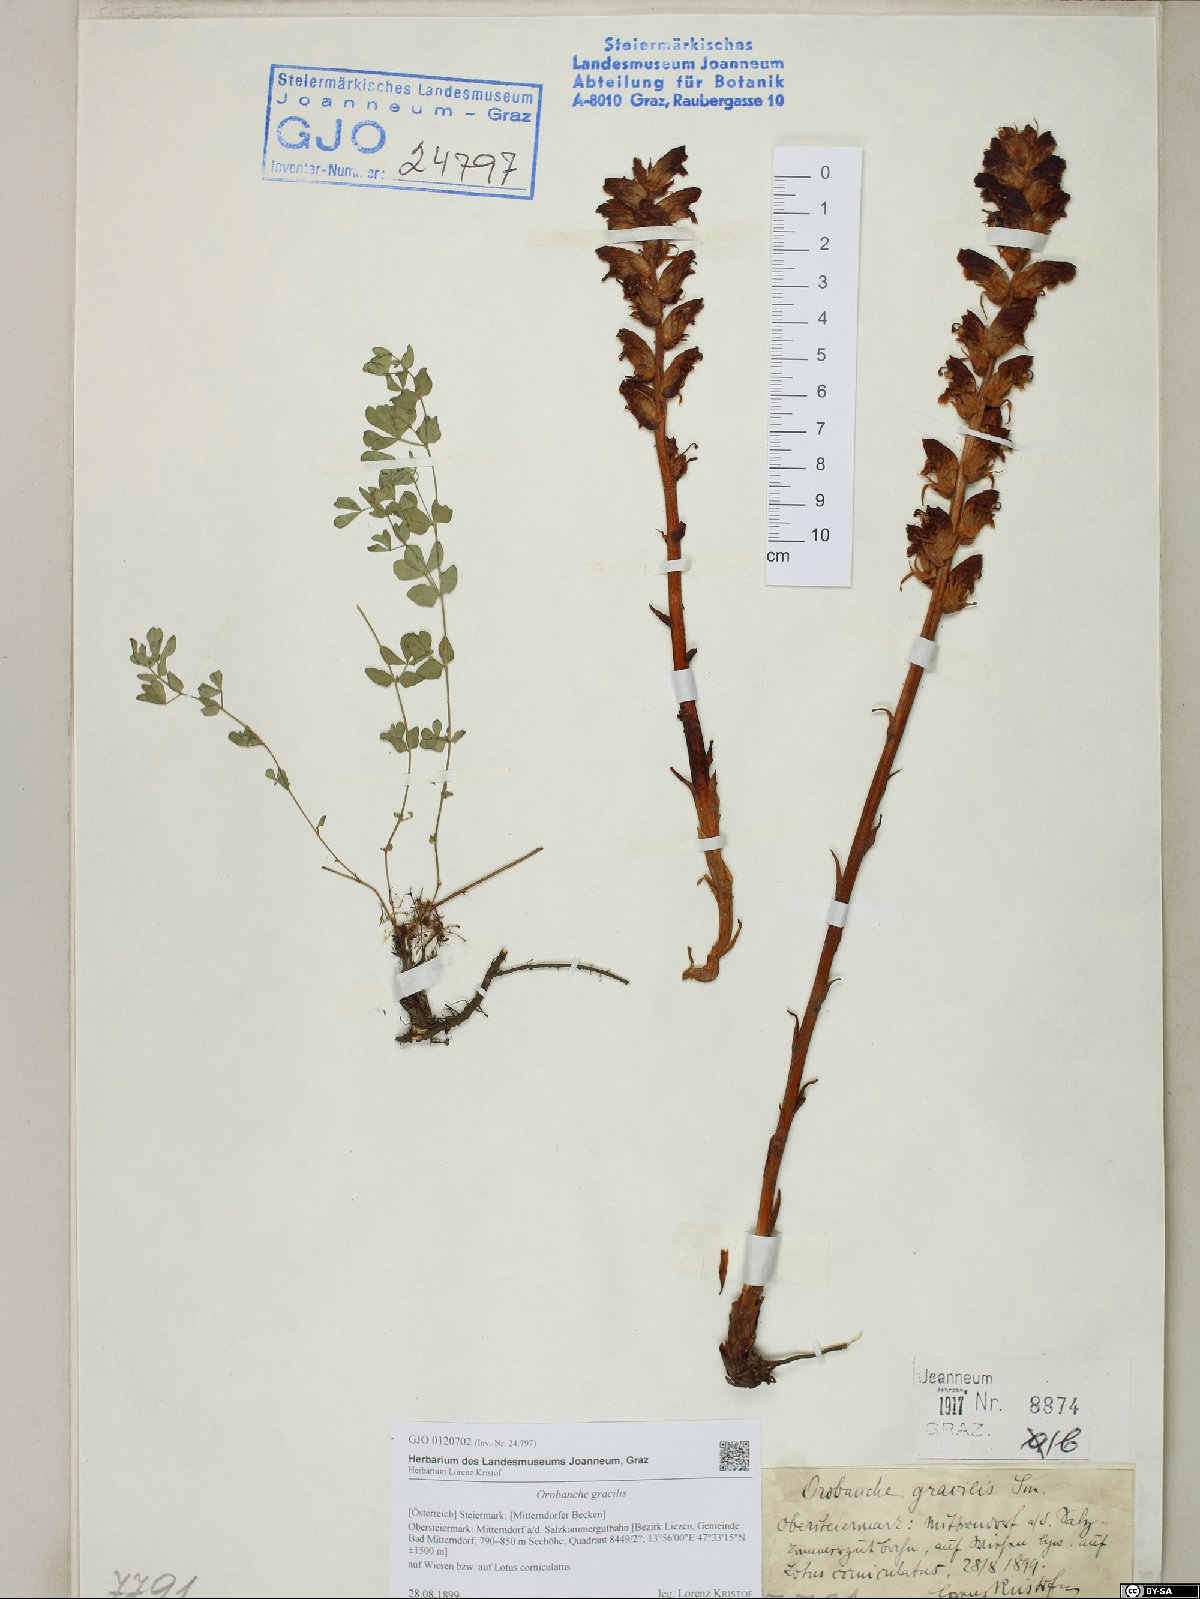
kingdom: Plantae
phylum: Tracheophyta
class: Magnoliopsida
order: Lamiales
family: Orobanchaceae
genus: Orobanche
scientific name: Orobanche gracilis
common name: Slender broomrape
